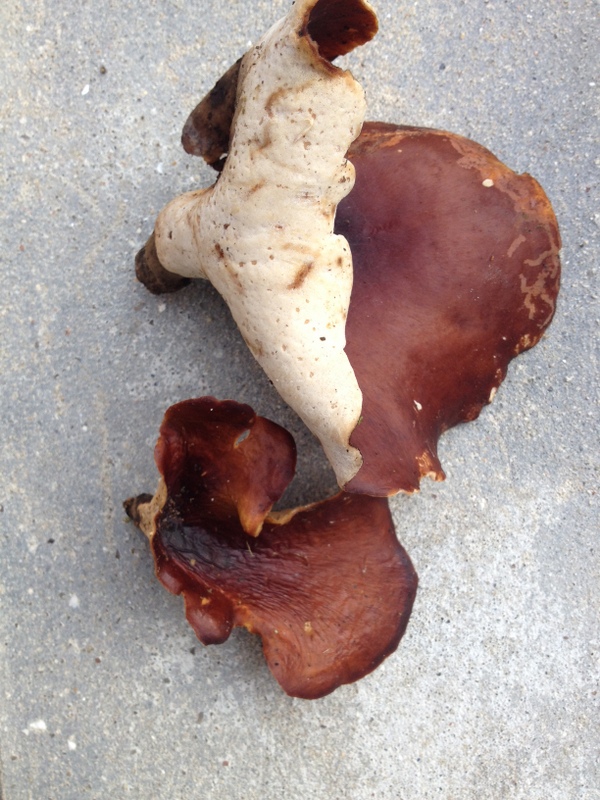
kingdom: Fungi
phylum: Basidiomycota
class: Agaricomycetes
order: Polyporales
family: Polyporaceae
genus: Picipes
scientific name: Picipes badius
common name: kastaniebrun stilkporesvamp
